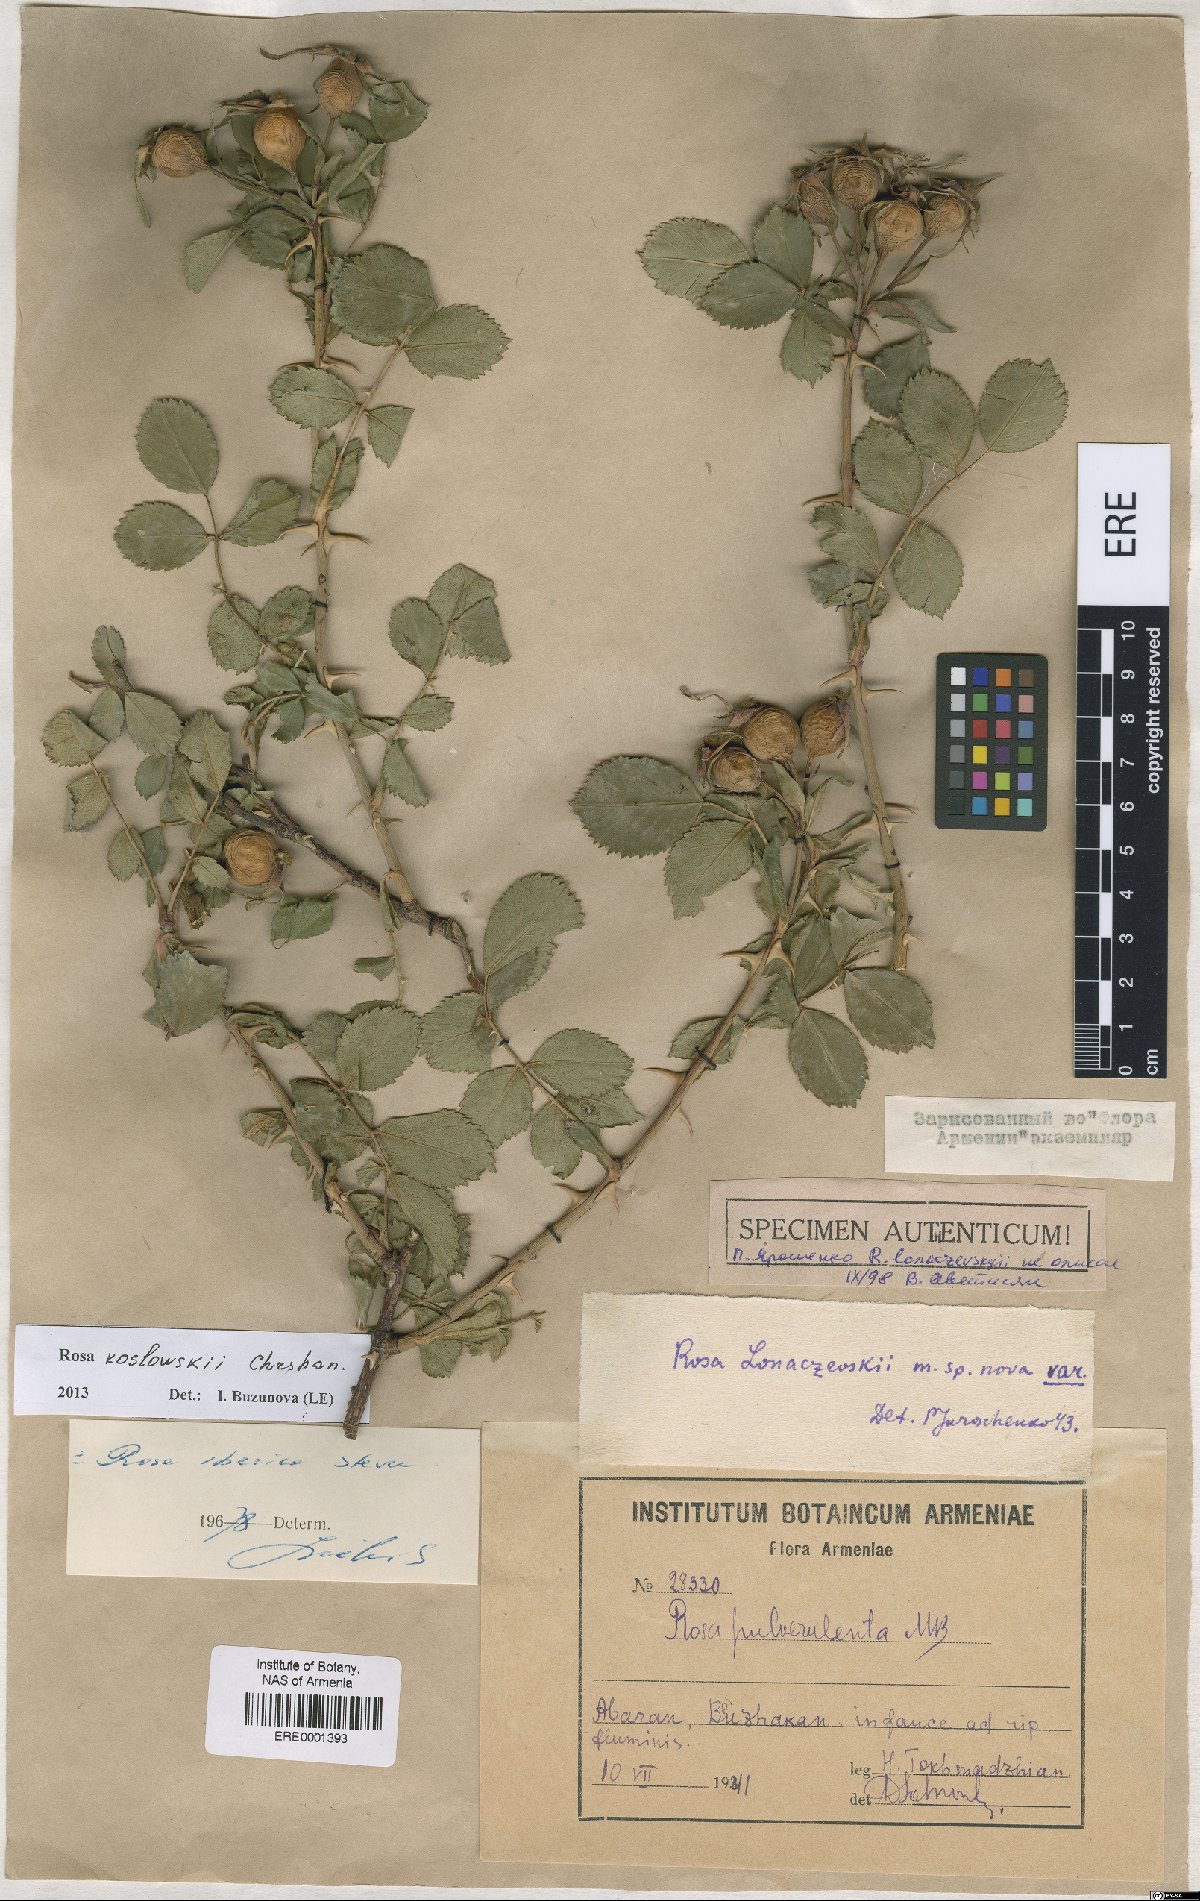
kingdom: Plantae
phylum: Tracheophyta
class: Magnoliopsida
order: Rosales
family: Rosaceae
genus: Rosa
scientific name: Rosa canina
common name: Dog rose
